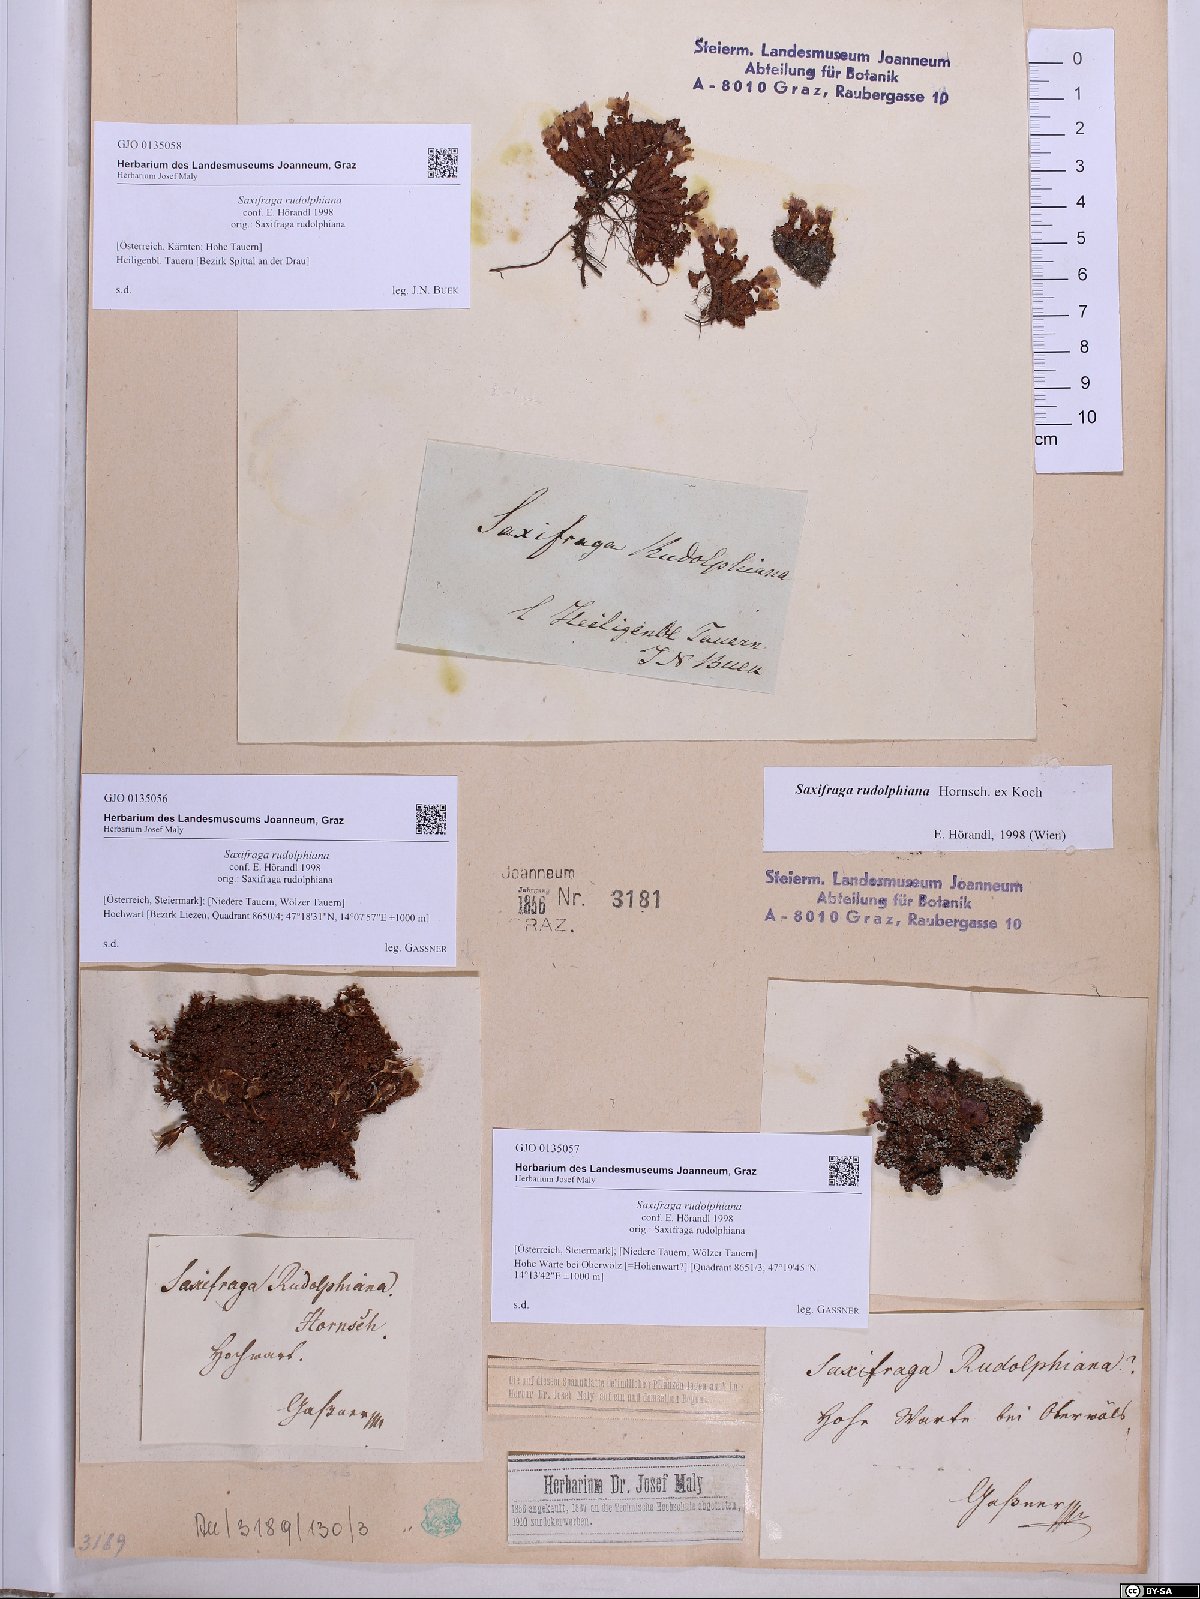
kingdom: Plantae
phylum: Tracheophyta
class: Magnoliopsida
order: Saxifragales
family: Saxifragaceae
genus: Saxifraga
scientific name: Saxifraga oppositifolia
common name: Purple saxifrage
